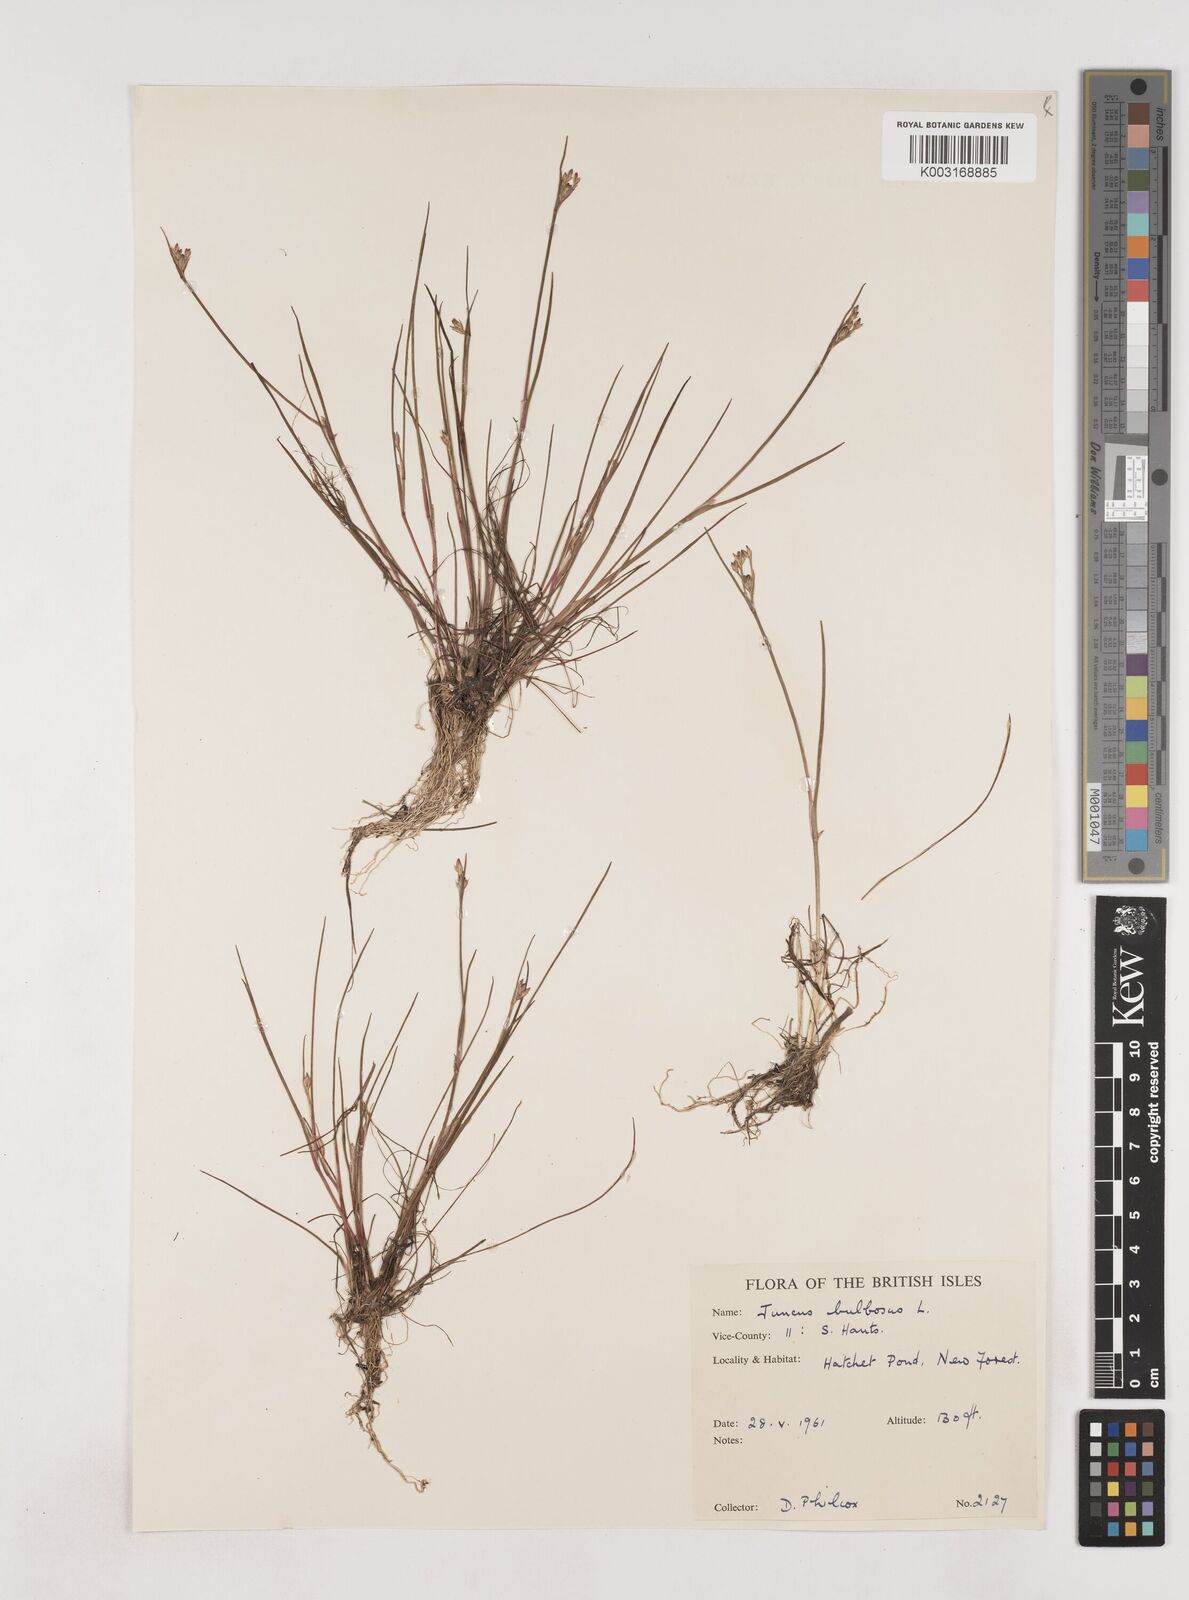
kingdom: Plantae
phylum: Tracheophyta
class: Liliopsida
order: Poales
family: Juncaceae
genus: Juncus
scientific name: Juncus bulbosus
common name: Bulbous rush
